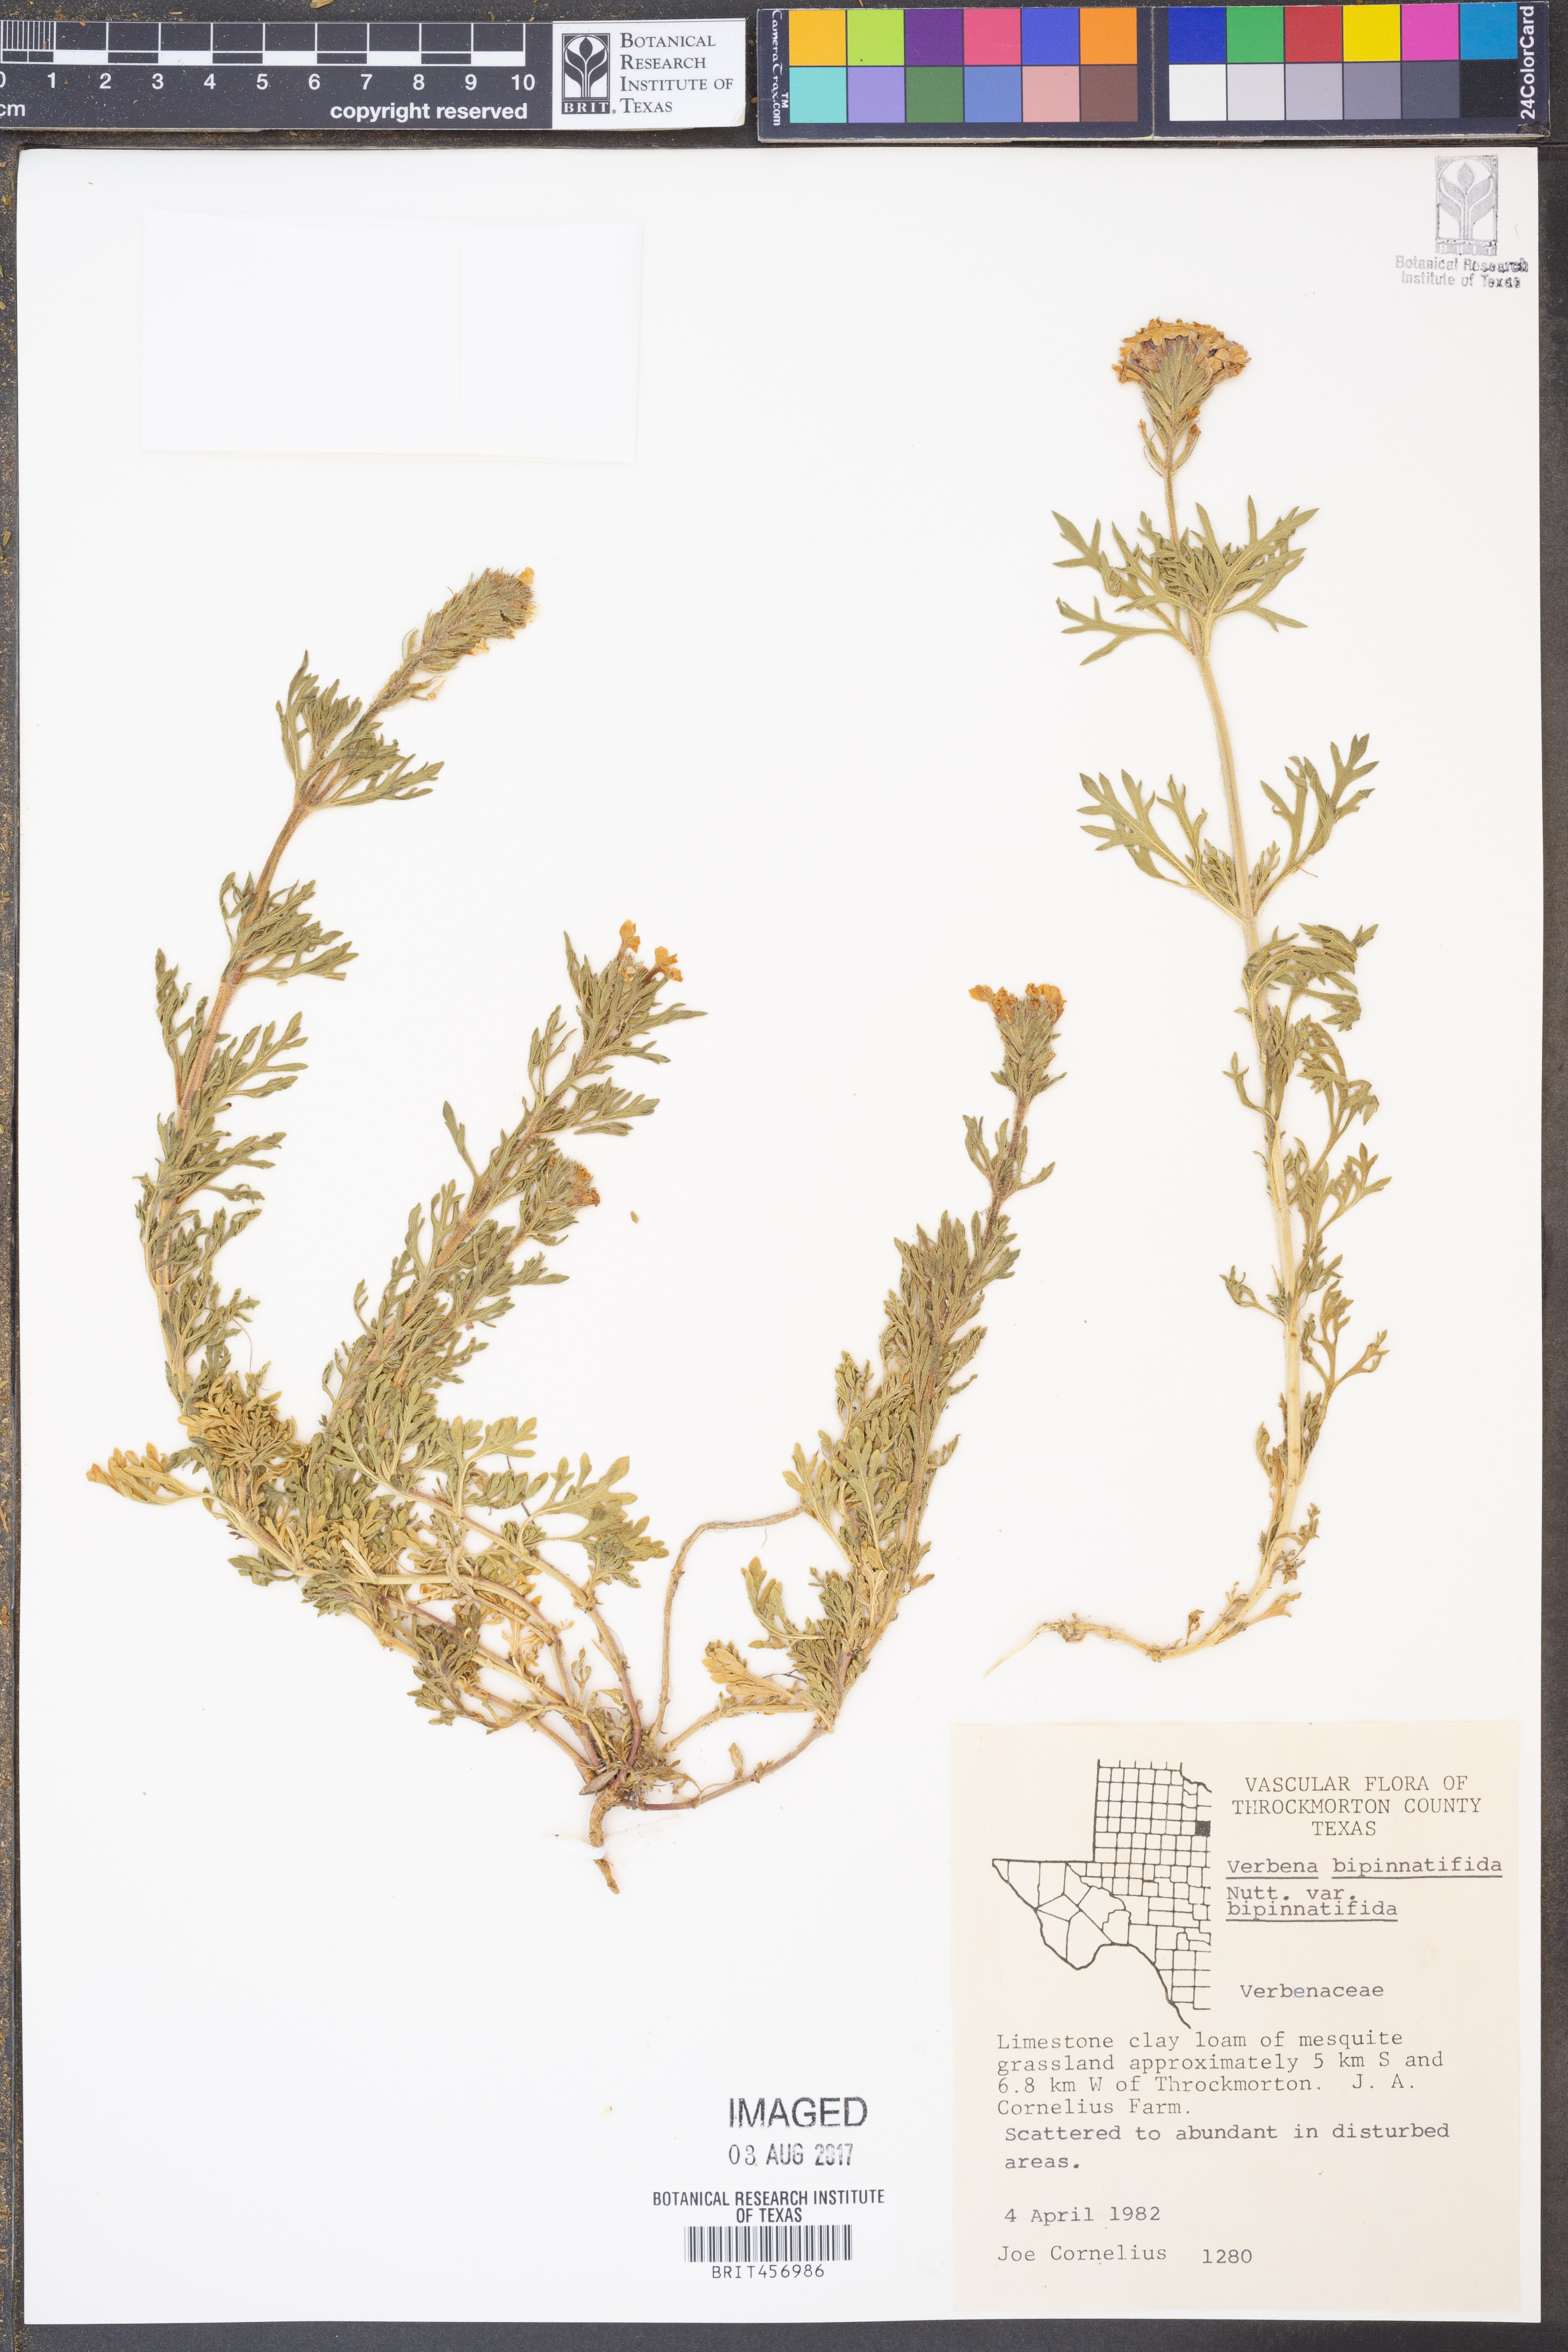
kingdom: Plantae
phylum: Tracheophyta
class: Magnoliopsida
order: Lamiales
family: Verbenaceae
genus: Verbena
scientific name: Verbena bipinnatifida
